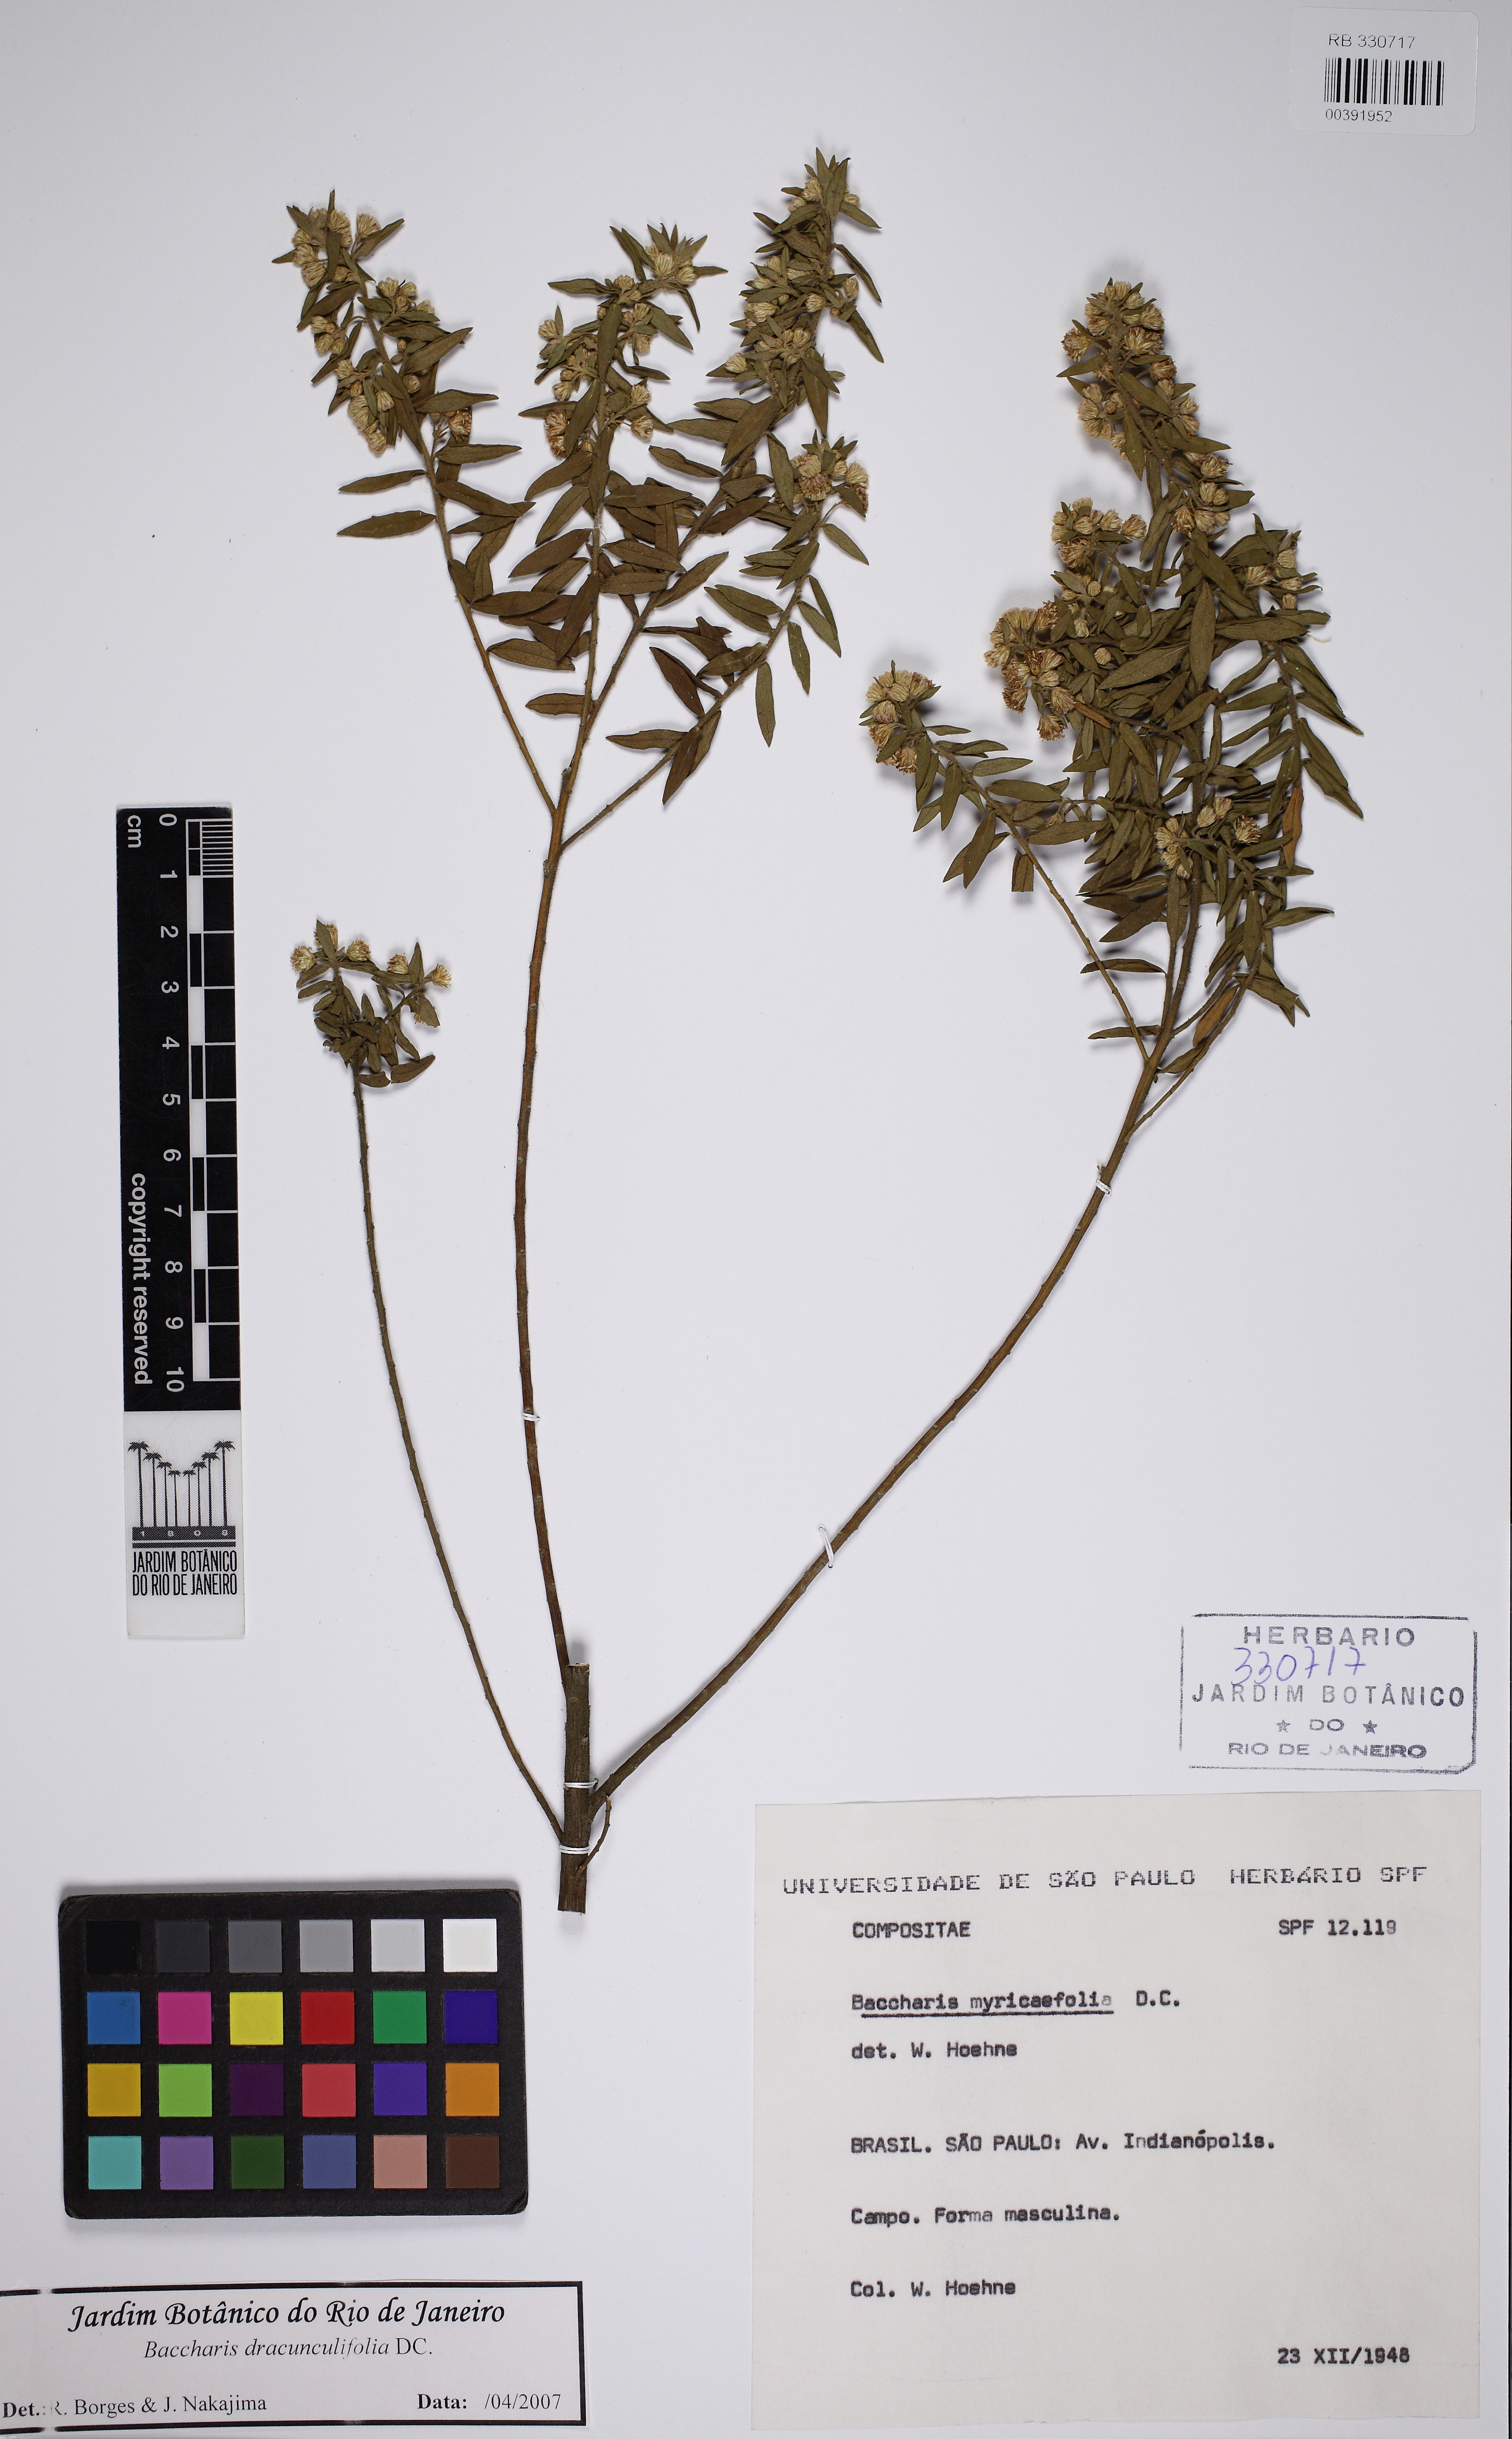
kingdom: Plantae
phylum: Tracheophyta
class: Magnoliopsida
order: Asterales
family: Asteraceae
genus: Baccharis
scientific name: Baccharis dracunculifolia
